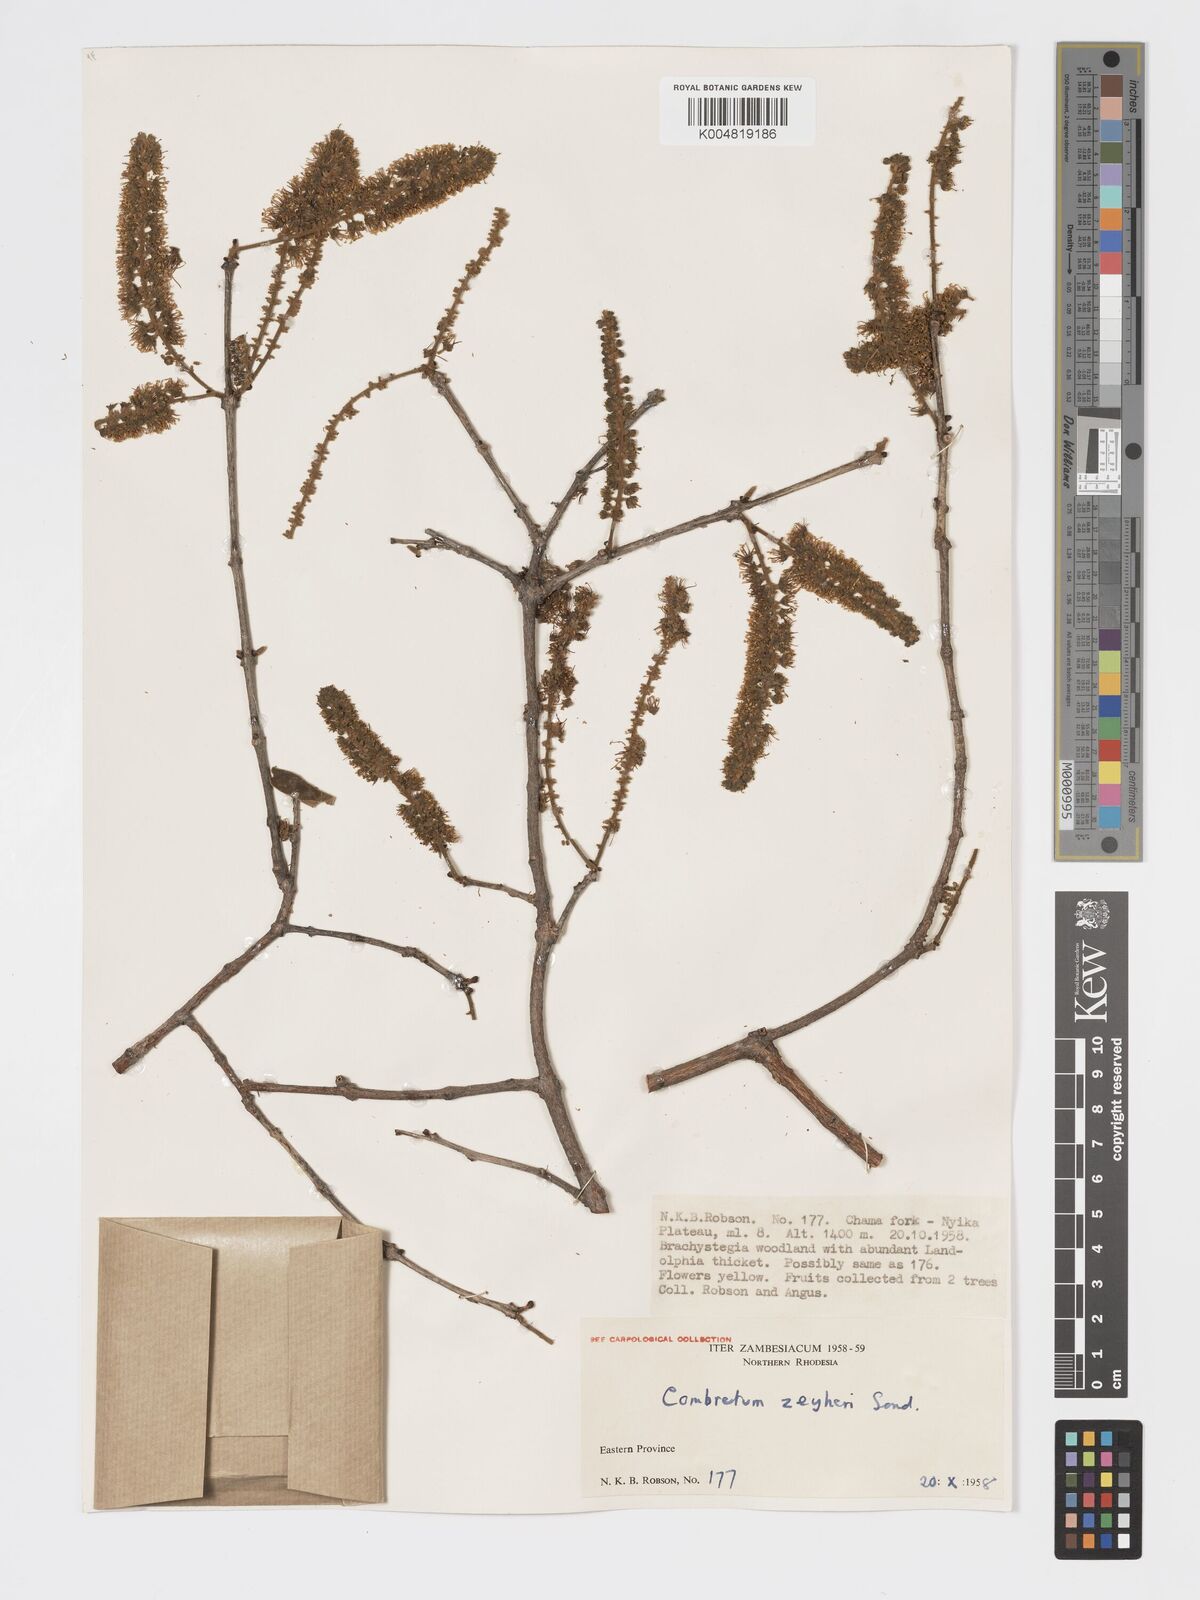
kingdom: Plantae
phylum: Tracheophyta
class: Magnoliopsida
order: Myrtales
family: Combretaceae
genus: Combretum
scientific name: Combretum zeyheri
